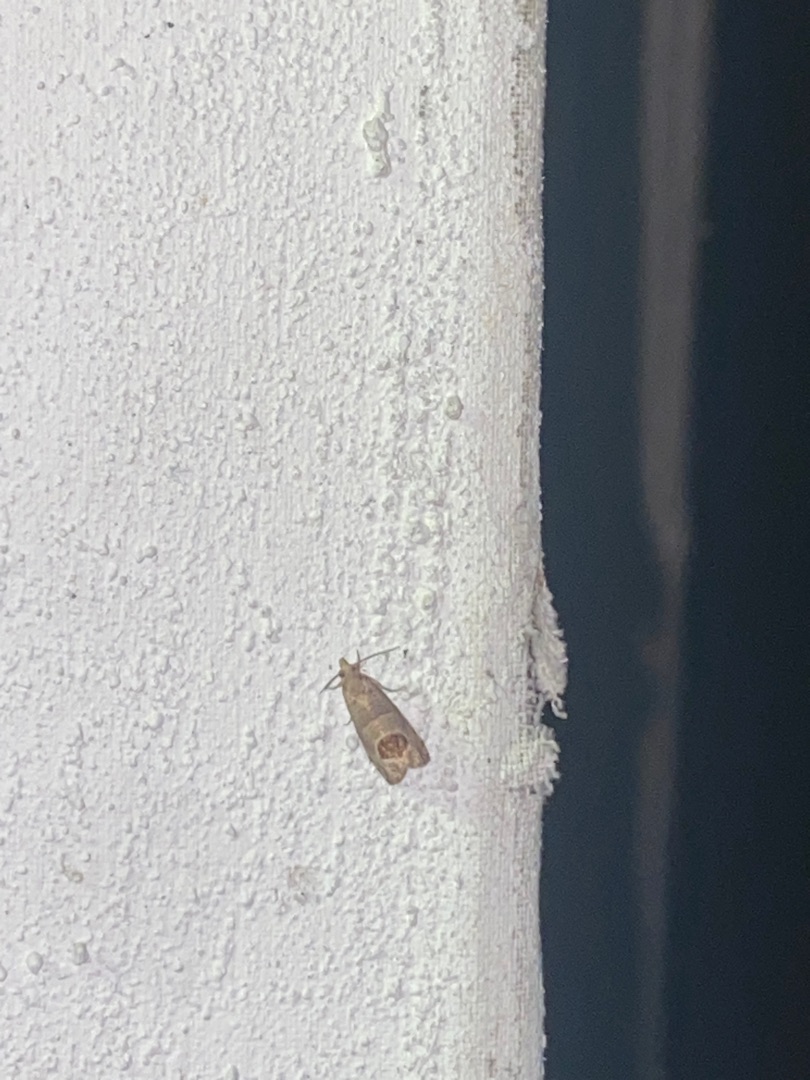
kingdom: Animalia
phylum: Arthropoda
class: Insecta
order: Lepidoptera
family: Tortricidae
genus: Notocelia
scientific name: Notocelia uddmanniana
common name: Brombærvikler
